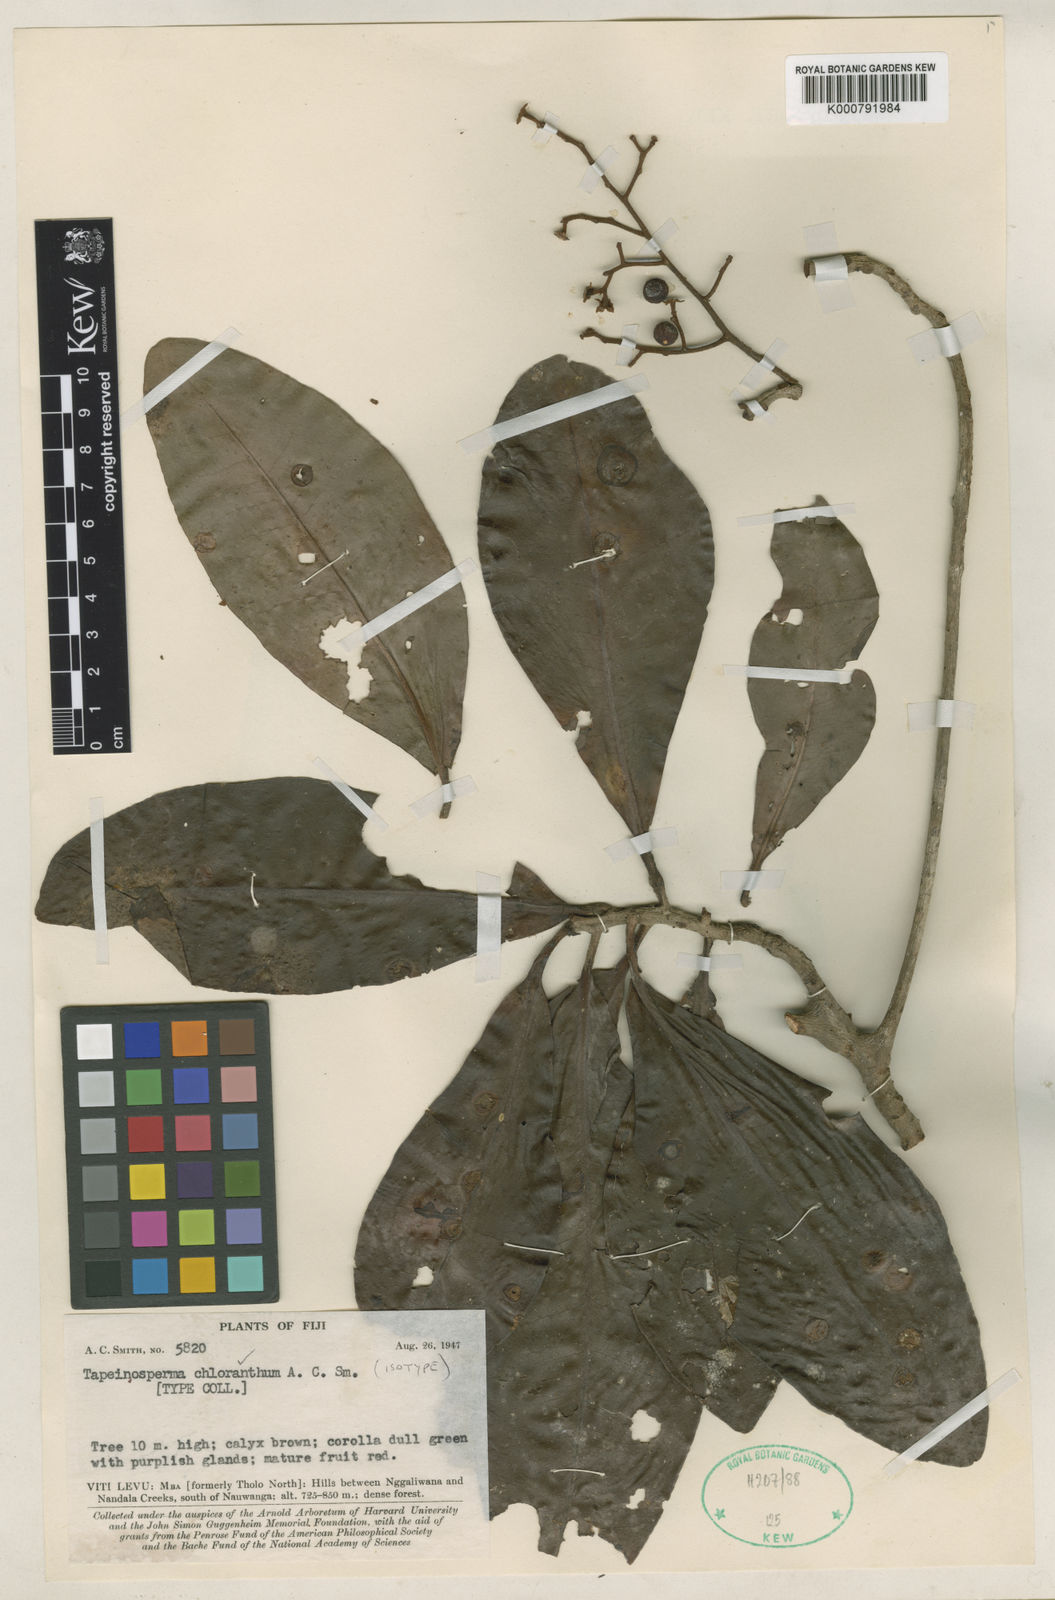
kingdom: Plantae
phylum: Tracheophyta
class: Magnoliopsida
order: Ericales
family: Primulaceae
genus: Tapeinosperma
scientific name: Tapeinosperma chloranthum
